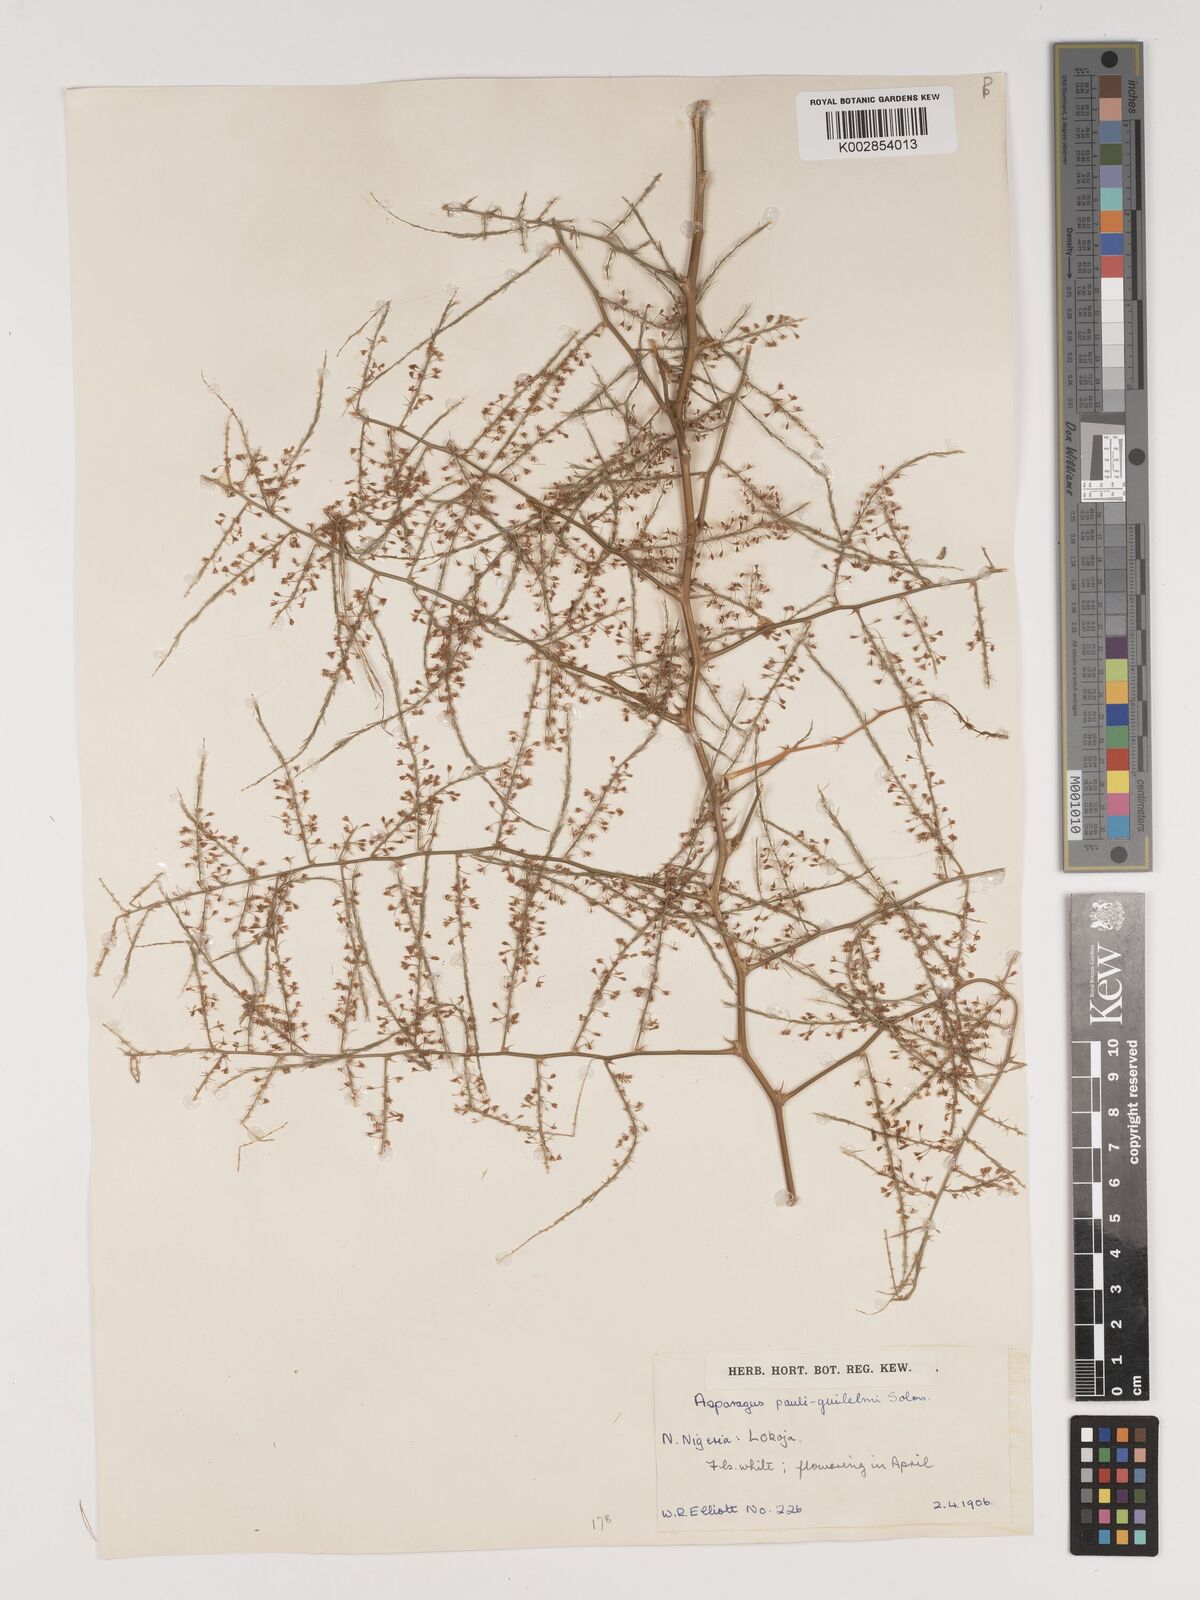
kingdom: Plantae
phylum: Tracheophyta
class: Liliopsida
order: Asparagales
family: Asparagaceae
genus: Asparagus
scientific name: Asparagus flagellaris
